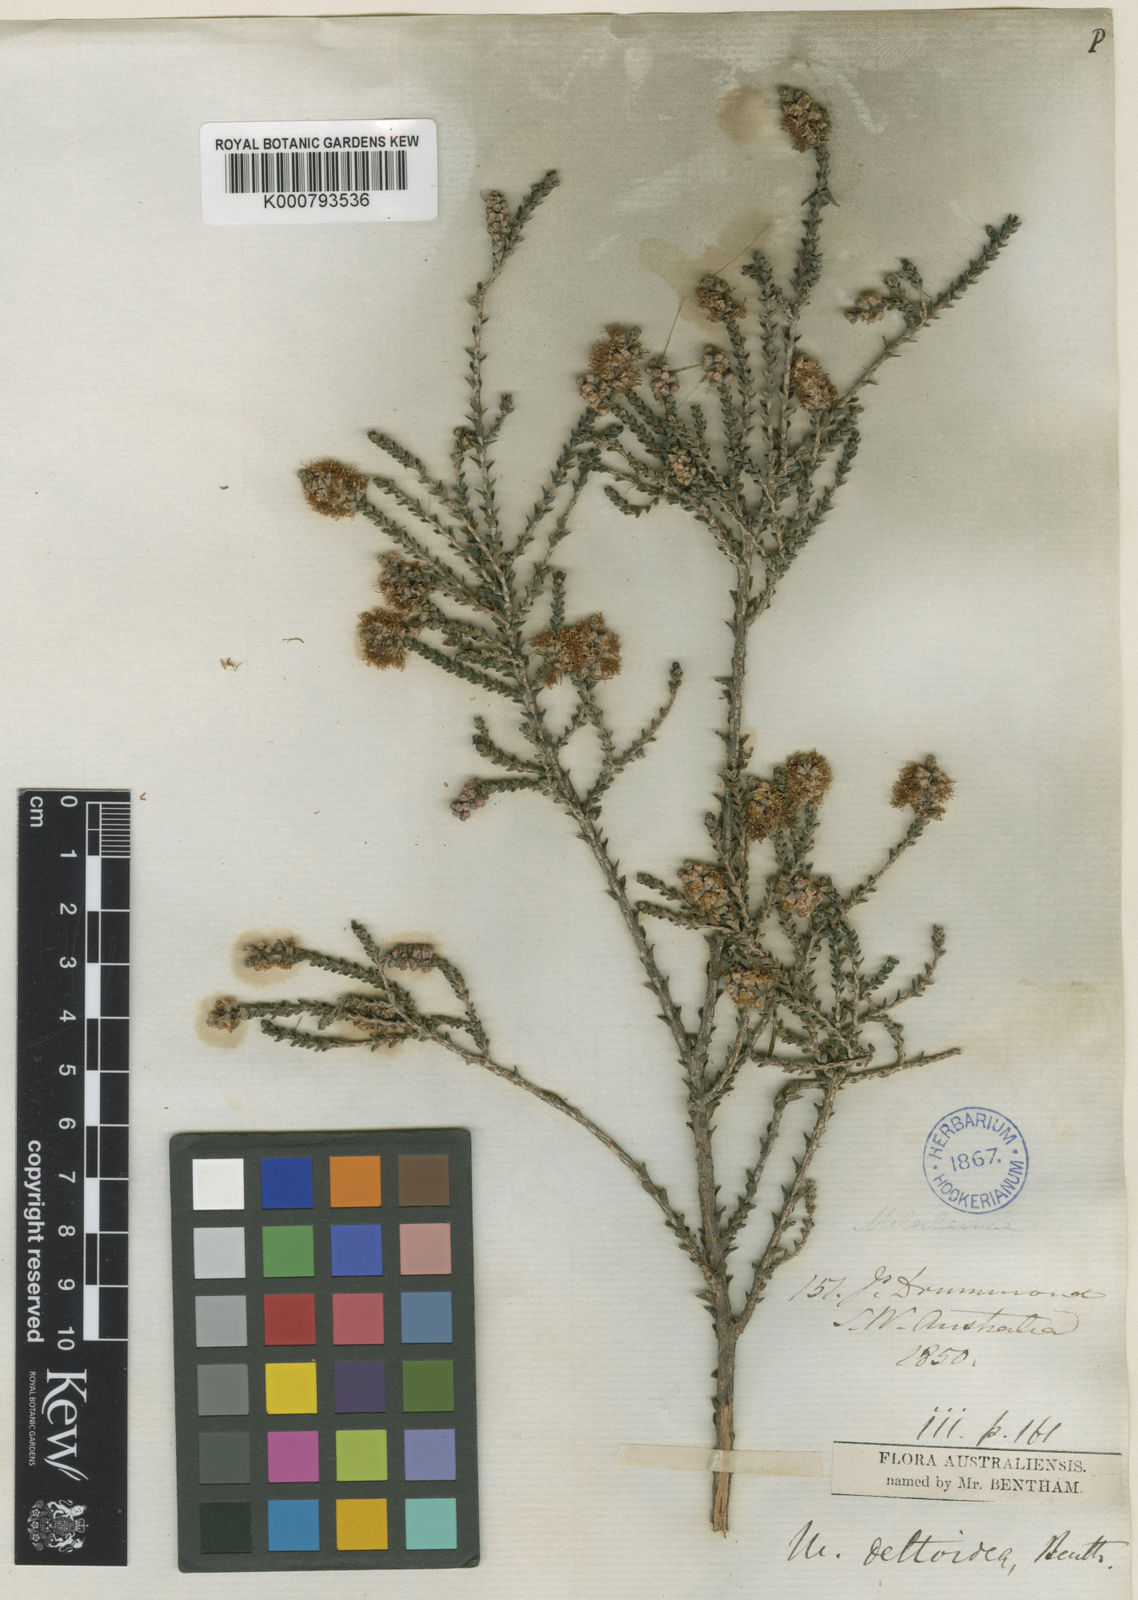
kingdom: Plantae
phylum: Tracheophyta
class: Magnoliopsida
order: Myrtales
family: Myrtaceae
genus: Melaleuca
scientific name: Melaleuca cucullata
